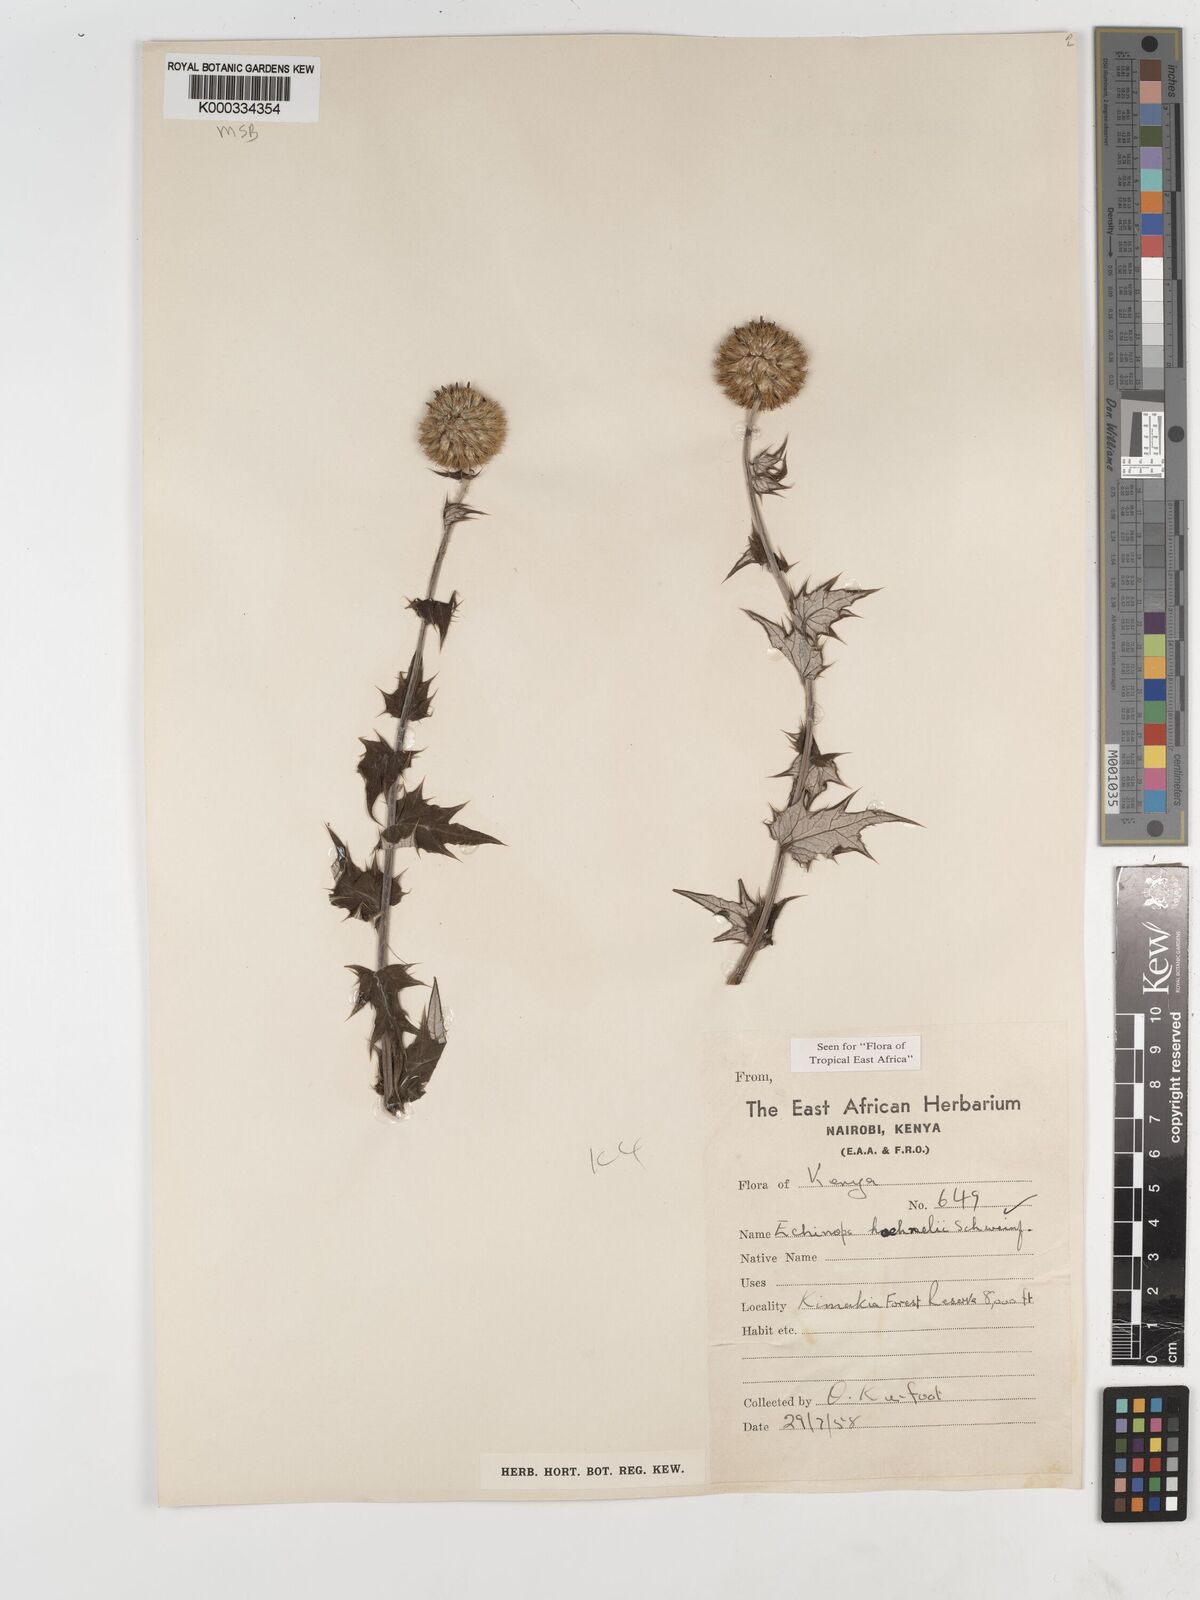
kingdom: Plantae
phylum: Tracheophyta
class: Magnoliopsida
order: Asterales
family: Asteraceae
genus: Echinops
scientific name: Echinops hoehnelii
